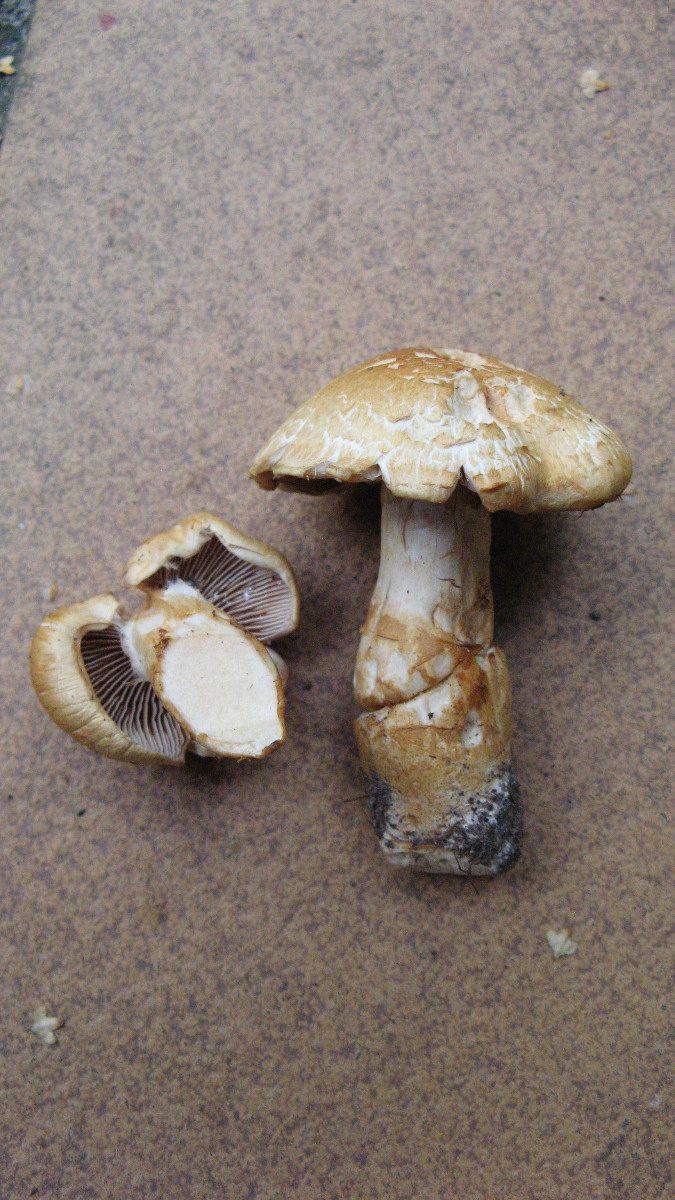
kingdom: Fungi
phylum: Basidiomycota
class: Agaricomycetes
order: Agaricales
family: Cortinariaceae
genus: Phlegmacium
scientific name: Phlegmacium triumphans
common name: gulbæltet slørhat
